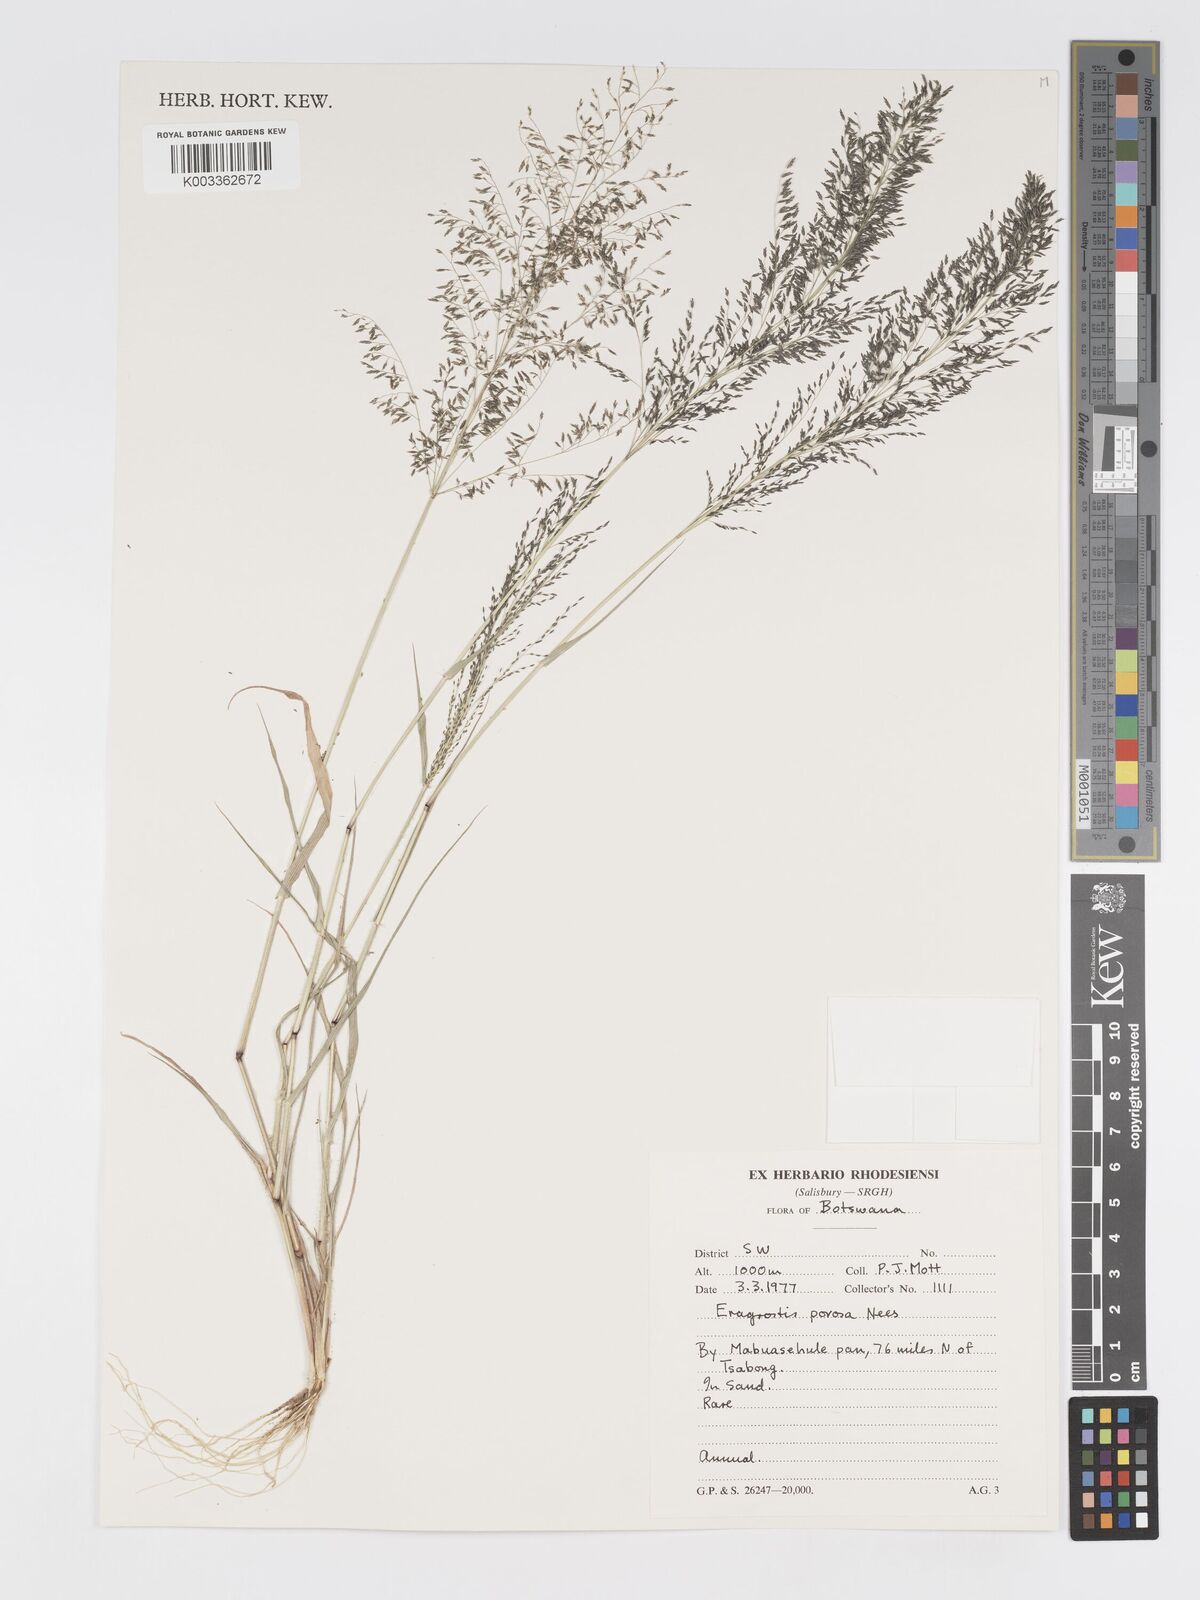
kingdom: Plantae
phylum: Tracheophyta
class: Liliopsida
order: Poales
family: Poaceae
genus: Eragrostis
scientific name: Eragrostis porosa
